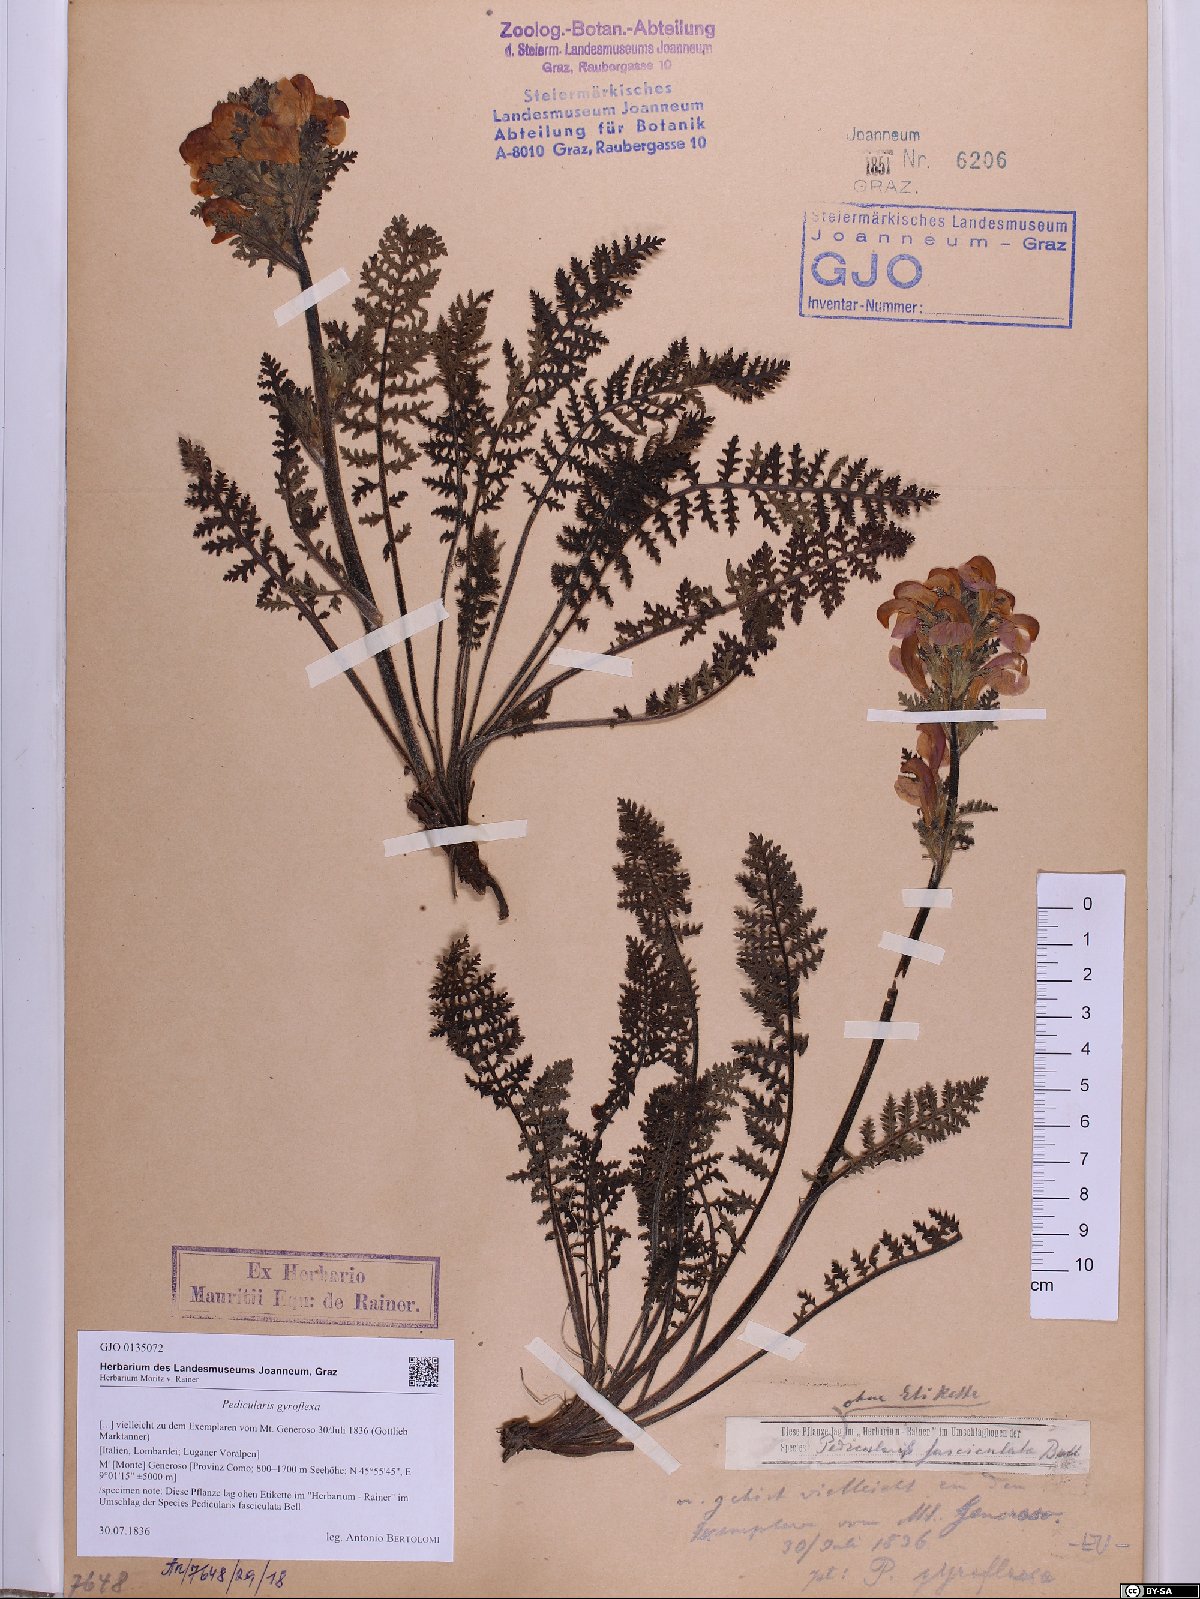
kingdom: Plantae
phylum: Tracheophyta
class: Magnoliopsida
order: Lamiales
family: Orobanchaceae
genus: Pedicularis
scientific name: Pedicularis gyroflexa
